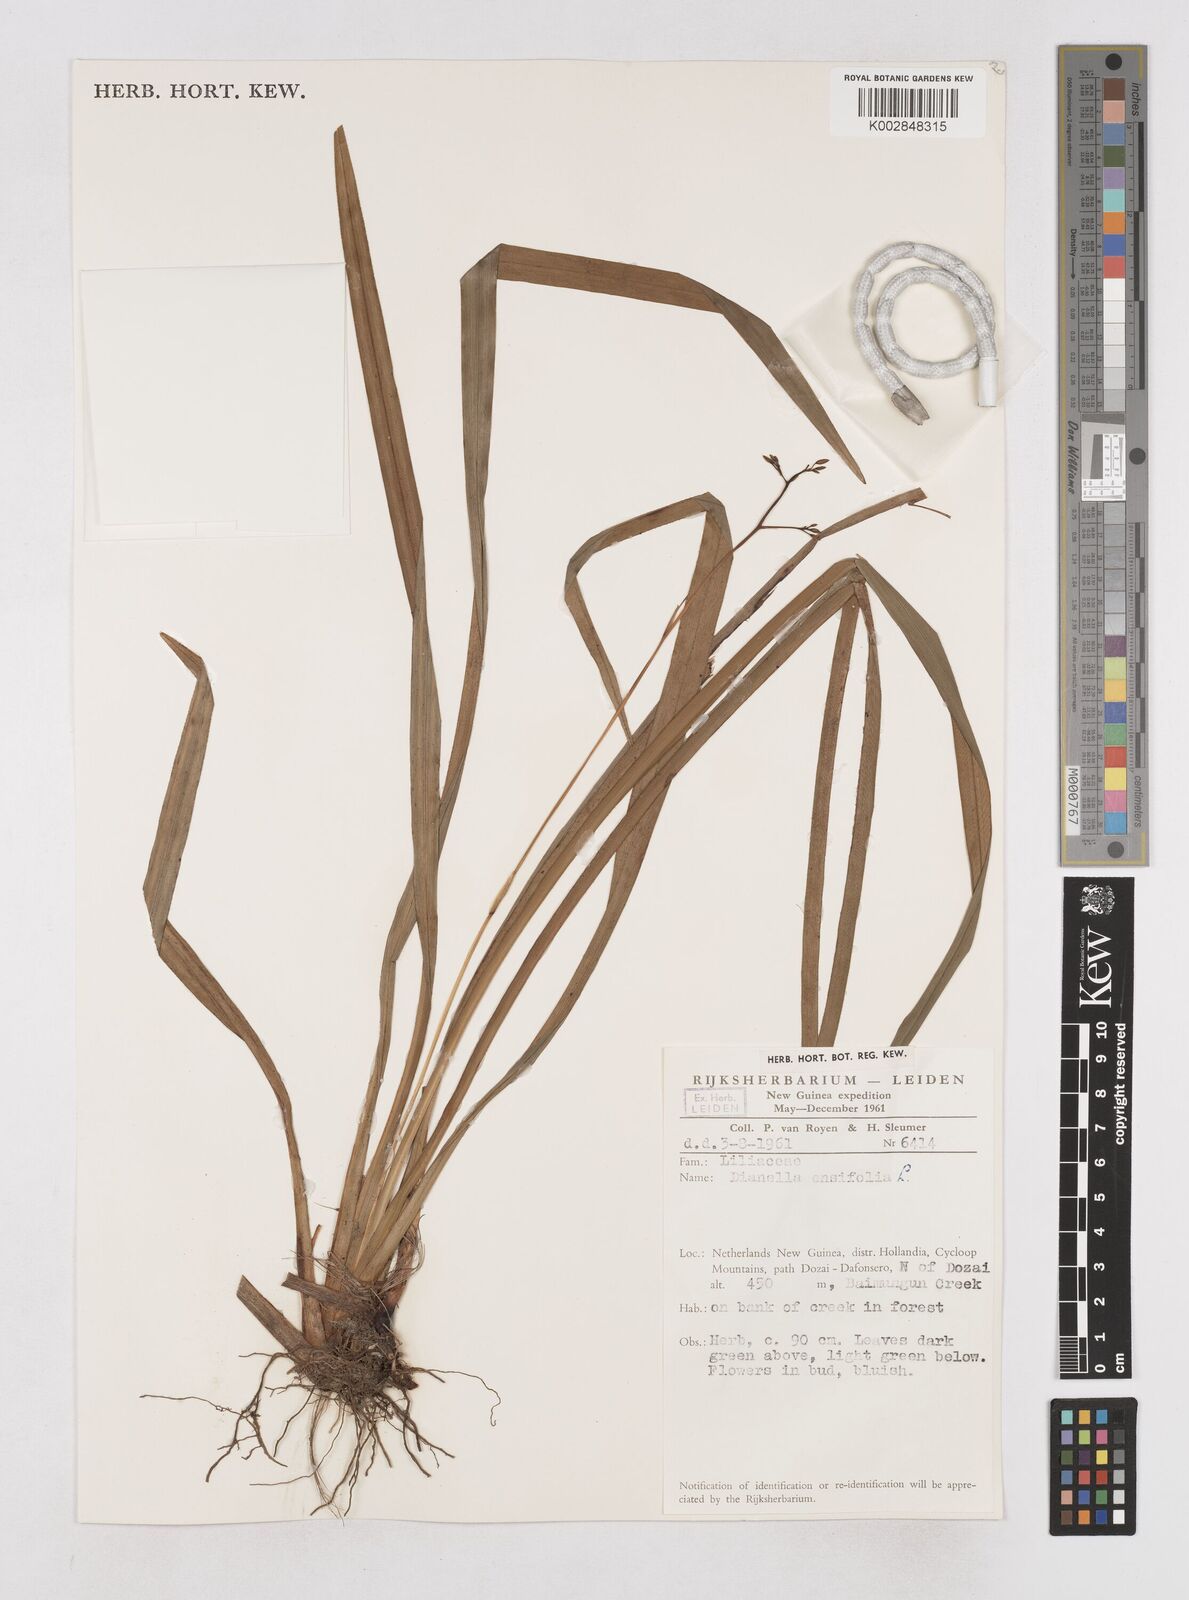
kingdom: Plantae
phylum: Tracheophyta
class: Liliopsida
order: Asparagales
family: Asphodelaceae
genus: Dianella
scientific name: Dianella ensifolia
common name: New zealand lilyplant
